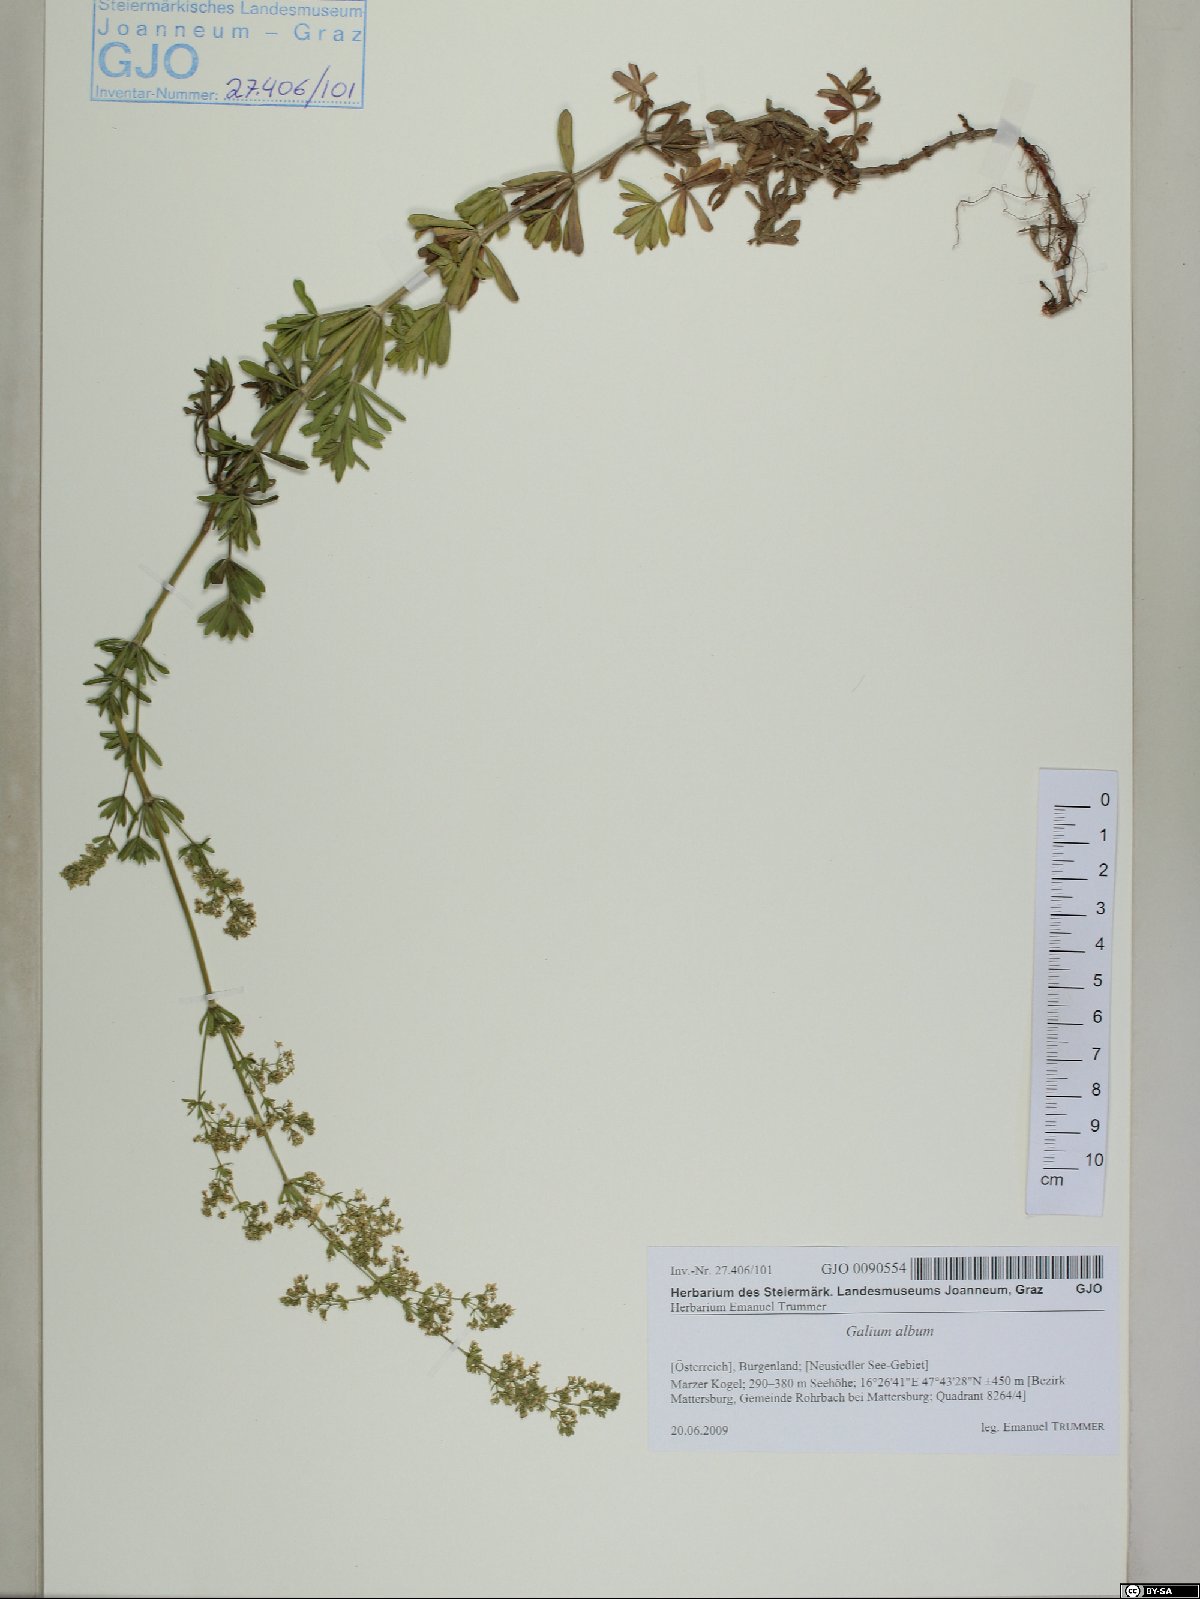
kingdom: Plantae
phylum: Tracheophyta
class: Magnoliopsida
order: Gentianales
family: Rubiaceae
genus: Galium
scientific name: Galium album
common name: White bedstraw
